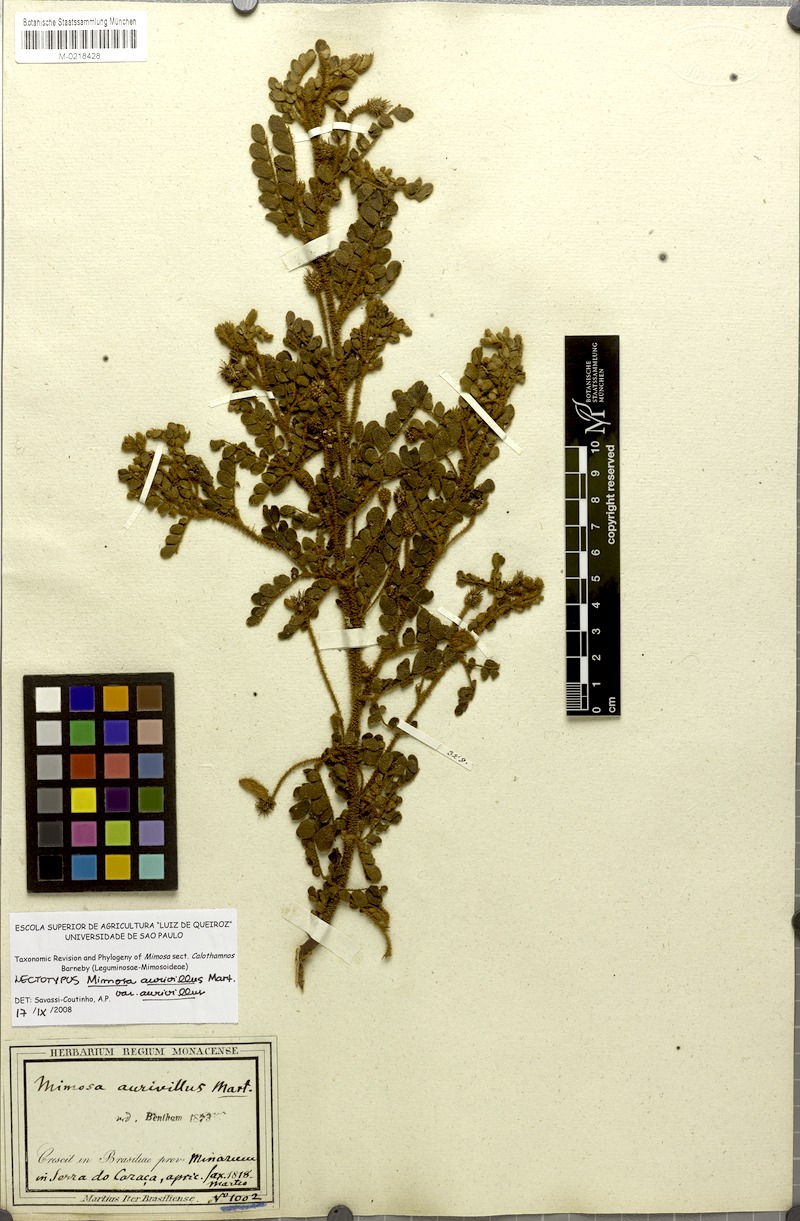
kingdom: Plantae
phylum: Tracheophyta
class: Magnoliopsida
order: Fabales
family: Fabaceae
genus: Mimosa
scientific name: Mimosa aurivillus
